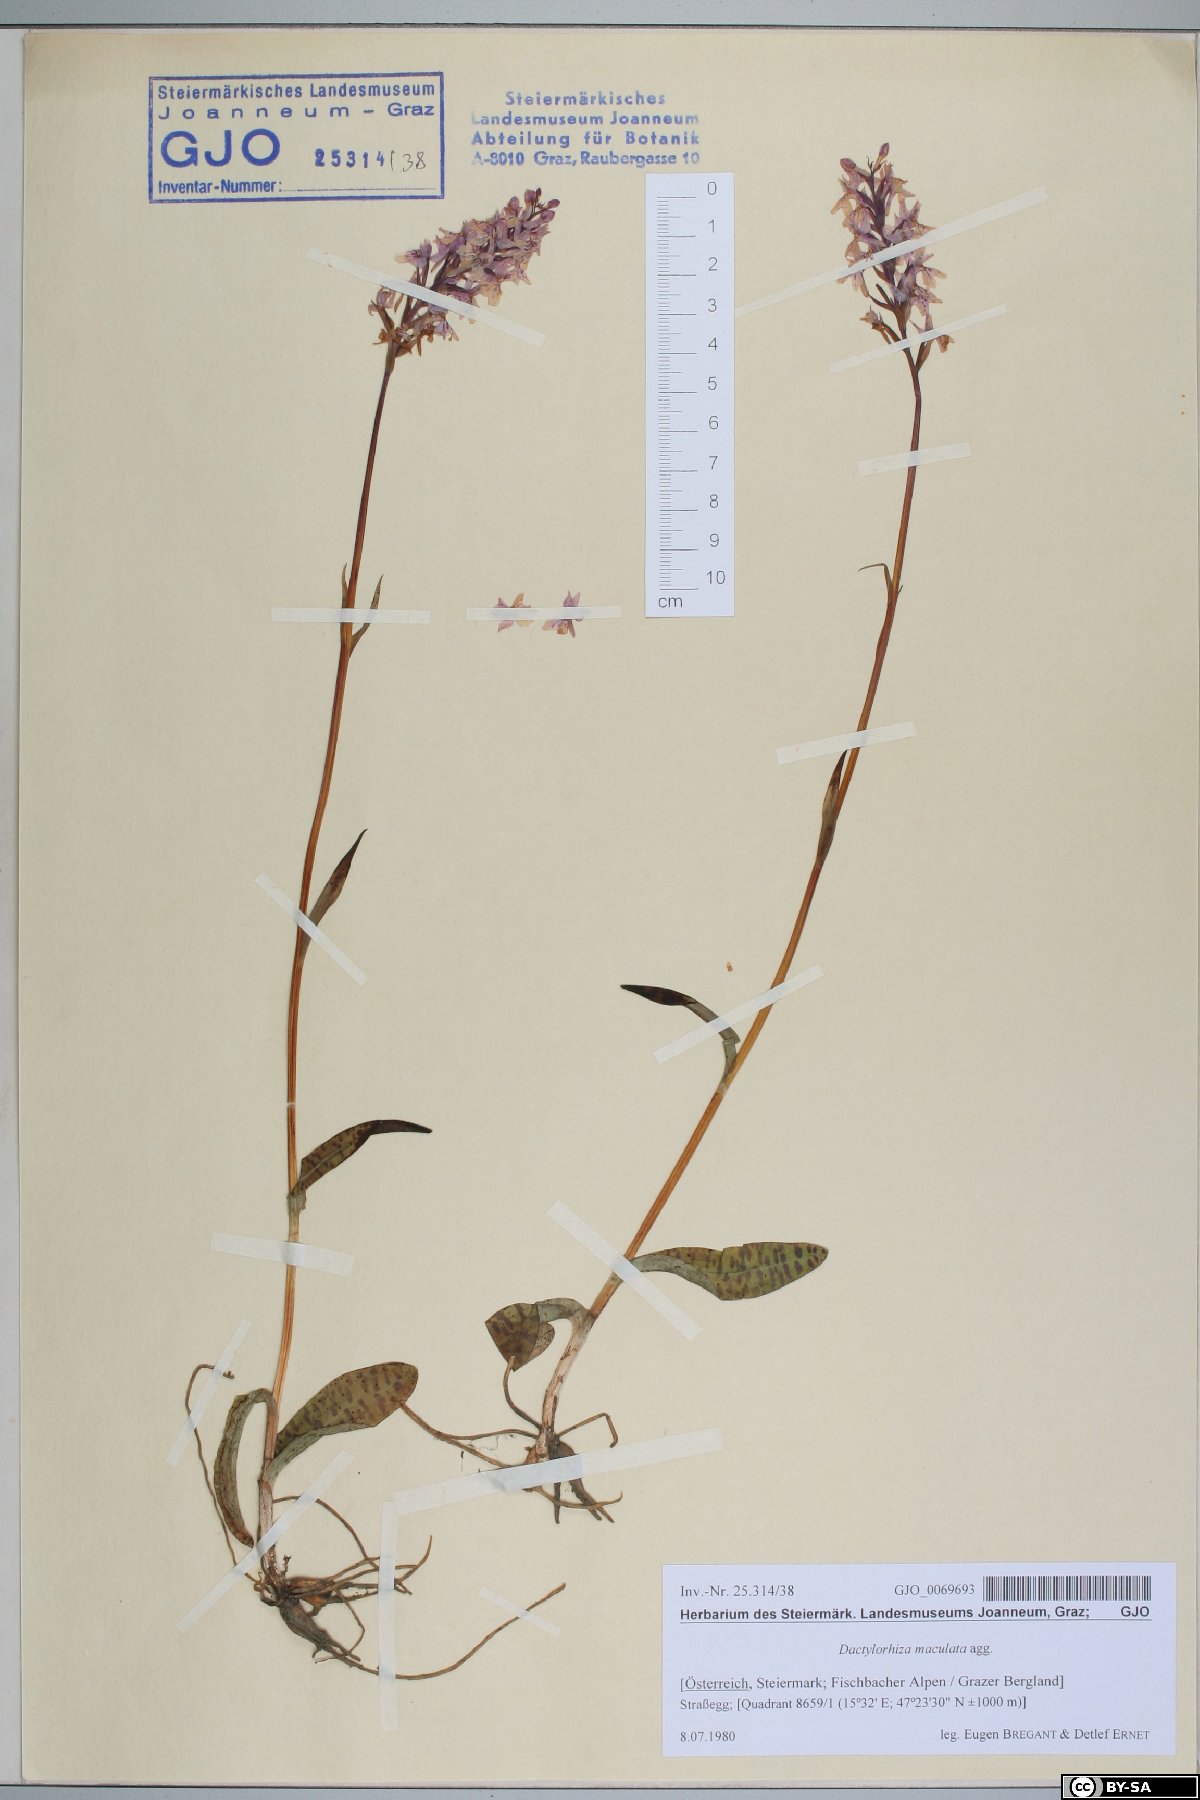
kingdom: Plantae
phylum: Tracheophyta
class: Liliopsida
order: Asparagales
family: Orchidaceae
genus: Dactylorhiza
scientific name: Dactylorhiza maculata
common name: Heath spotted-orchid
